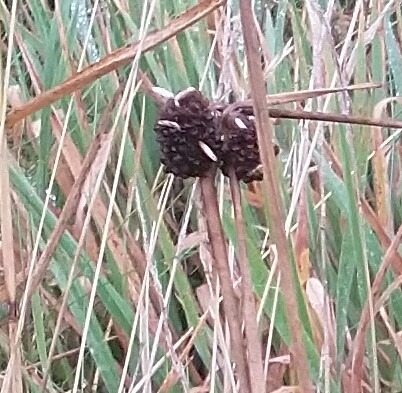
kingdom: Plantae
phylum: Tracheophyta
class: Liliopsida
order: Poales
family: Juncaceae
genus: Juncus
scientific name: Juncus conglomeratus
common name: Knop-siv
